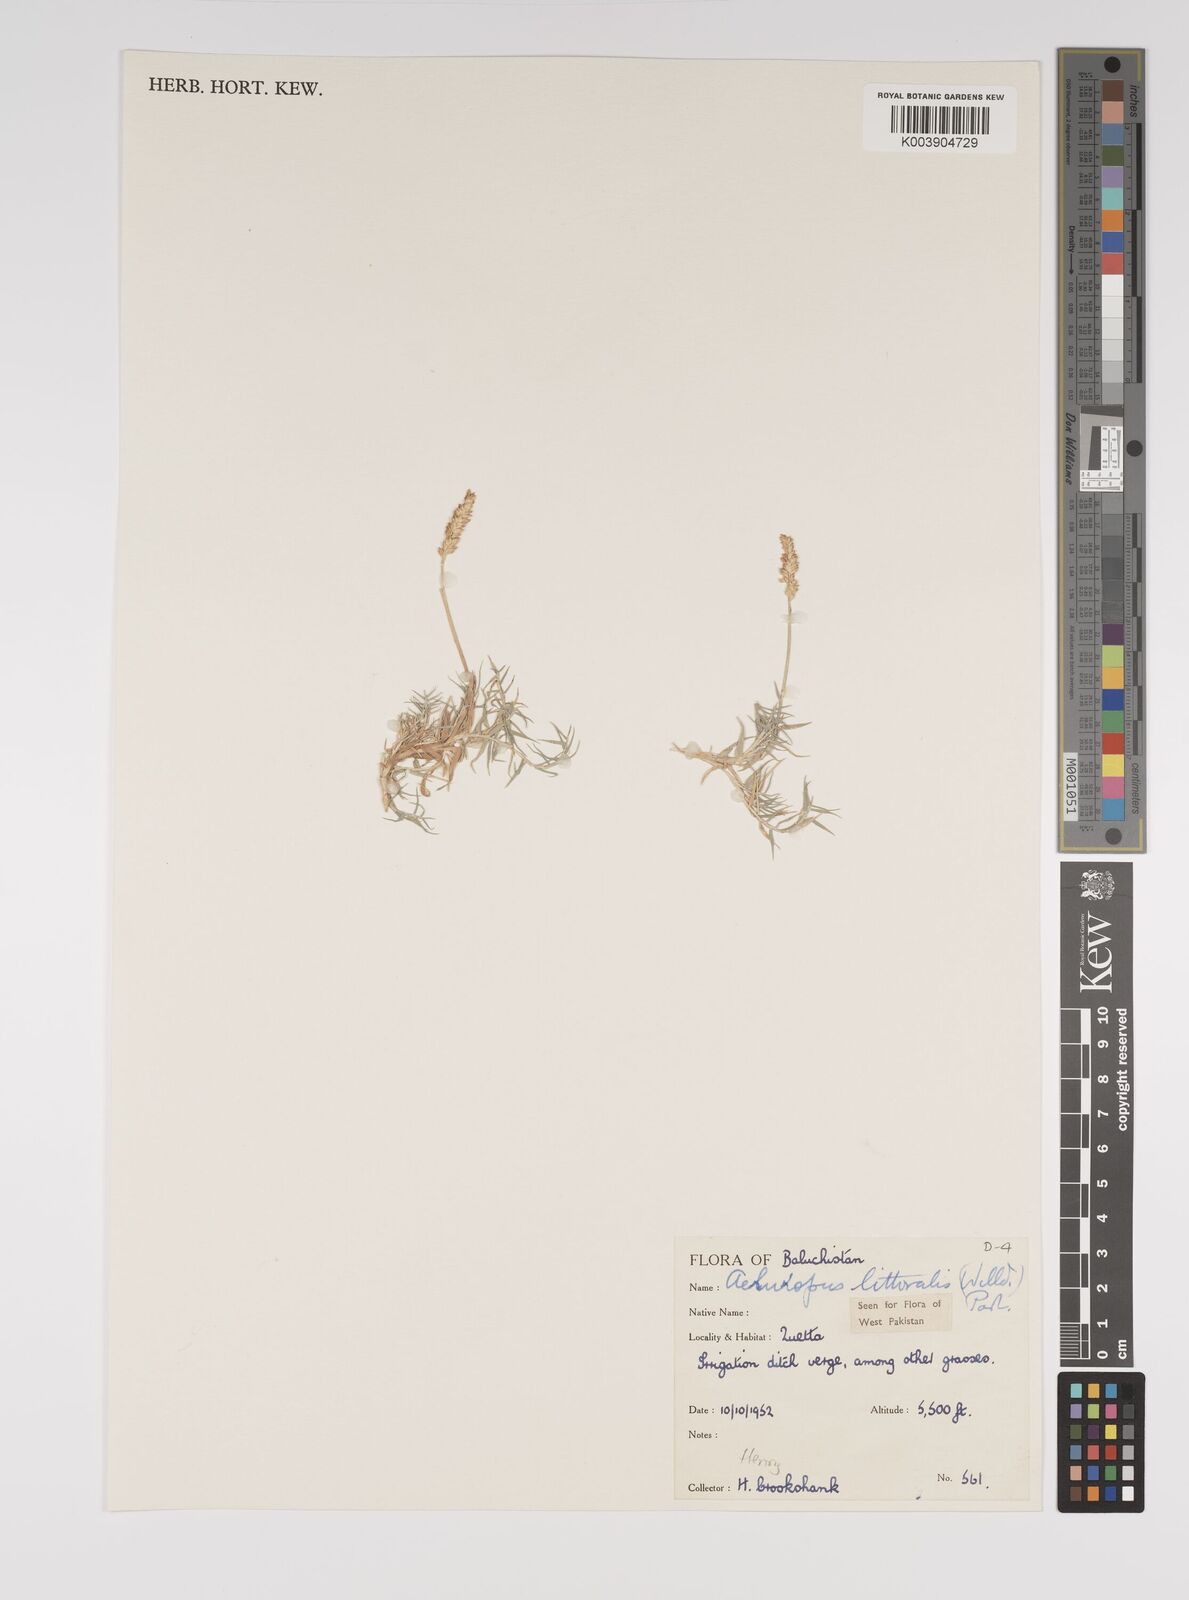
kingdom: Plantae
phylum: Tracheophyta
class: Liliopsida
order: Poales
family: Poaceae
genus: Aeluropus
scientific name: Aeluropus littoralis
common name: Indian walnut
